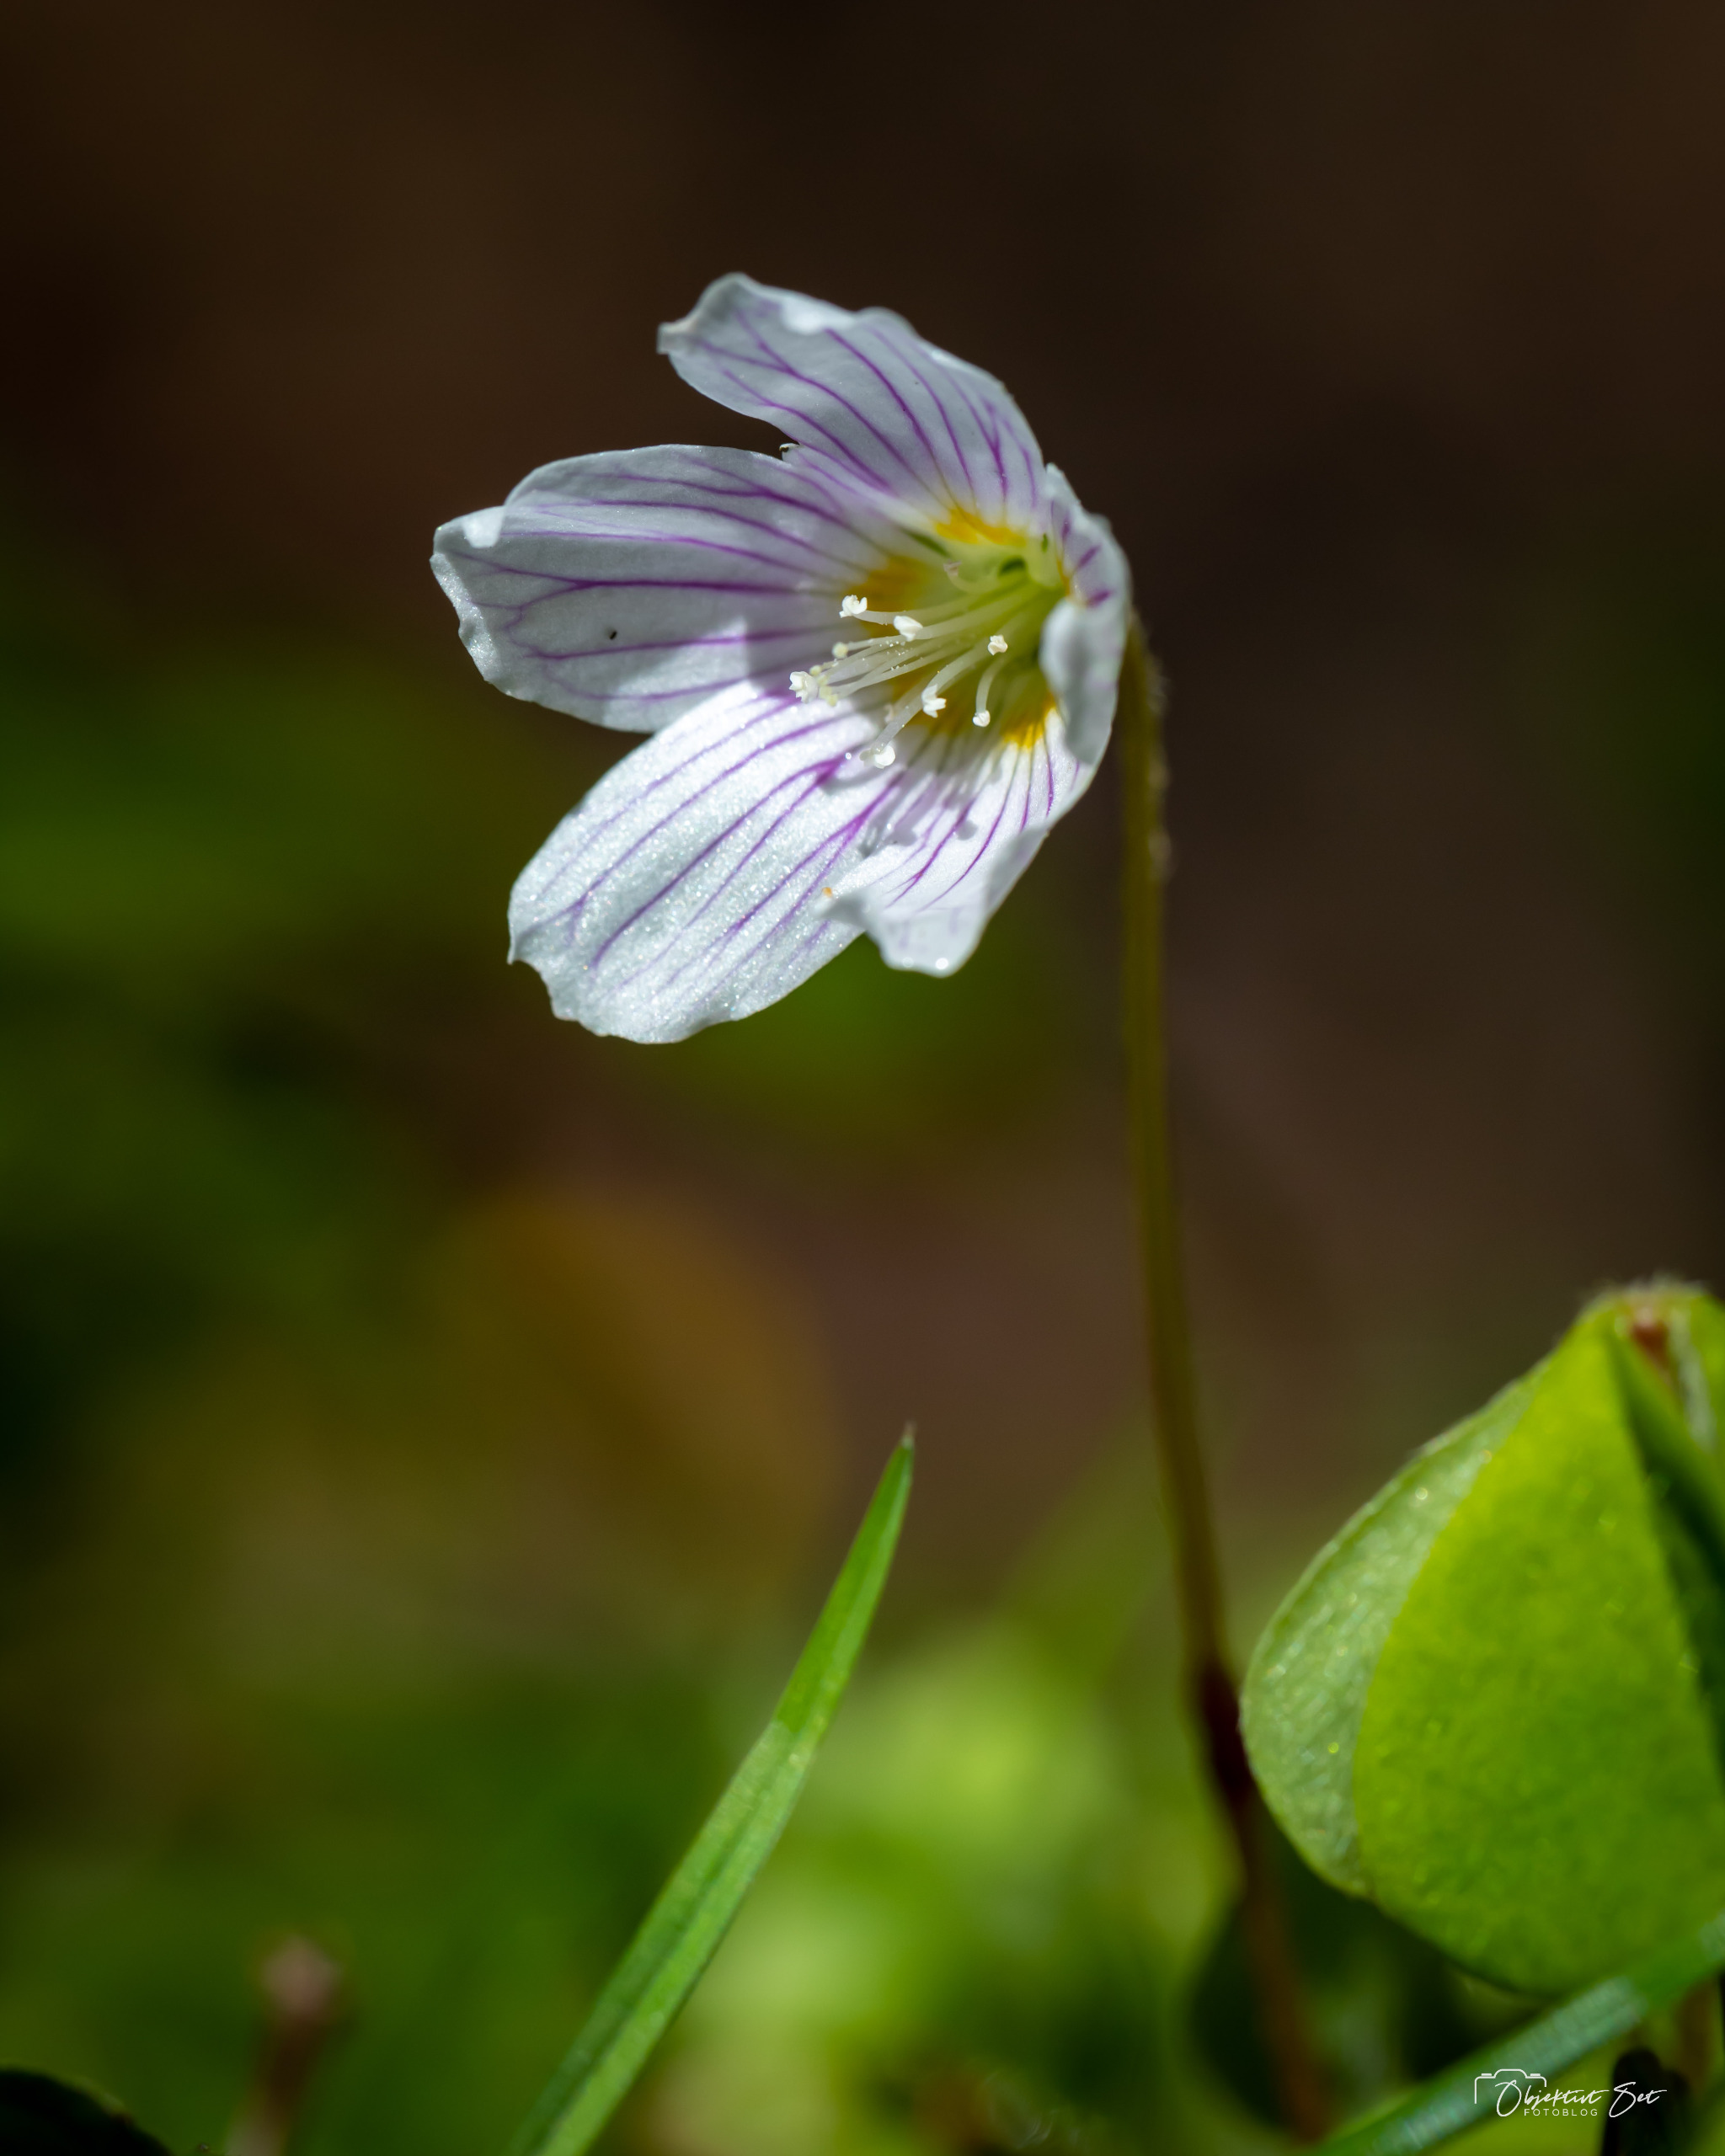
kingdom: Plantae
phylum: Tracheophyta
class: Magnoliopsida
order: Oxalidales
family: Oxalidaceae
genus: Oxalis
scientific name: Oxalis acetosella
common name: Skovsyre
